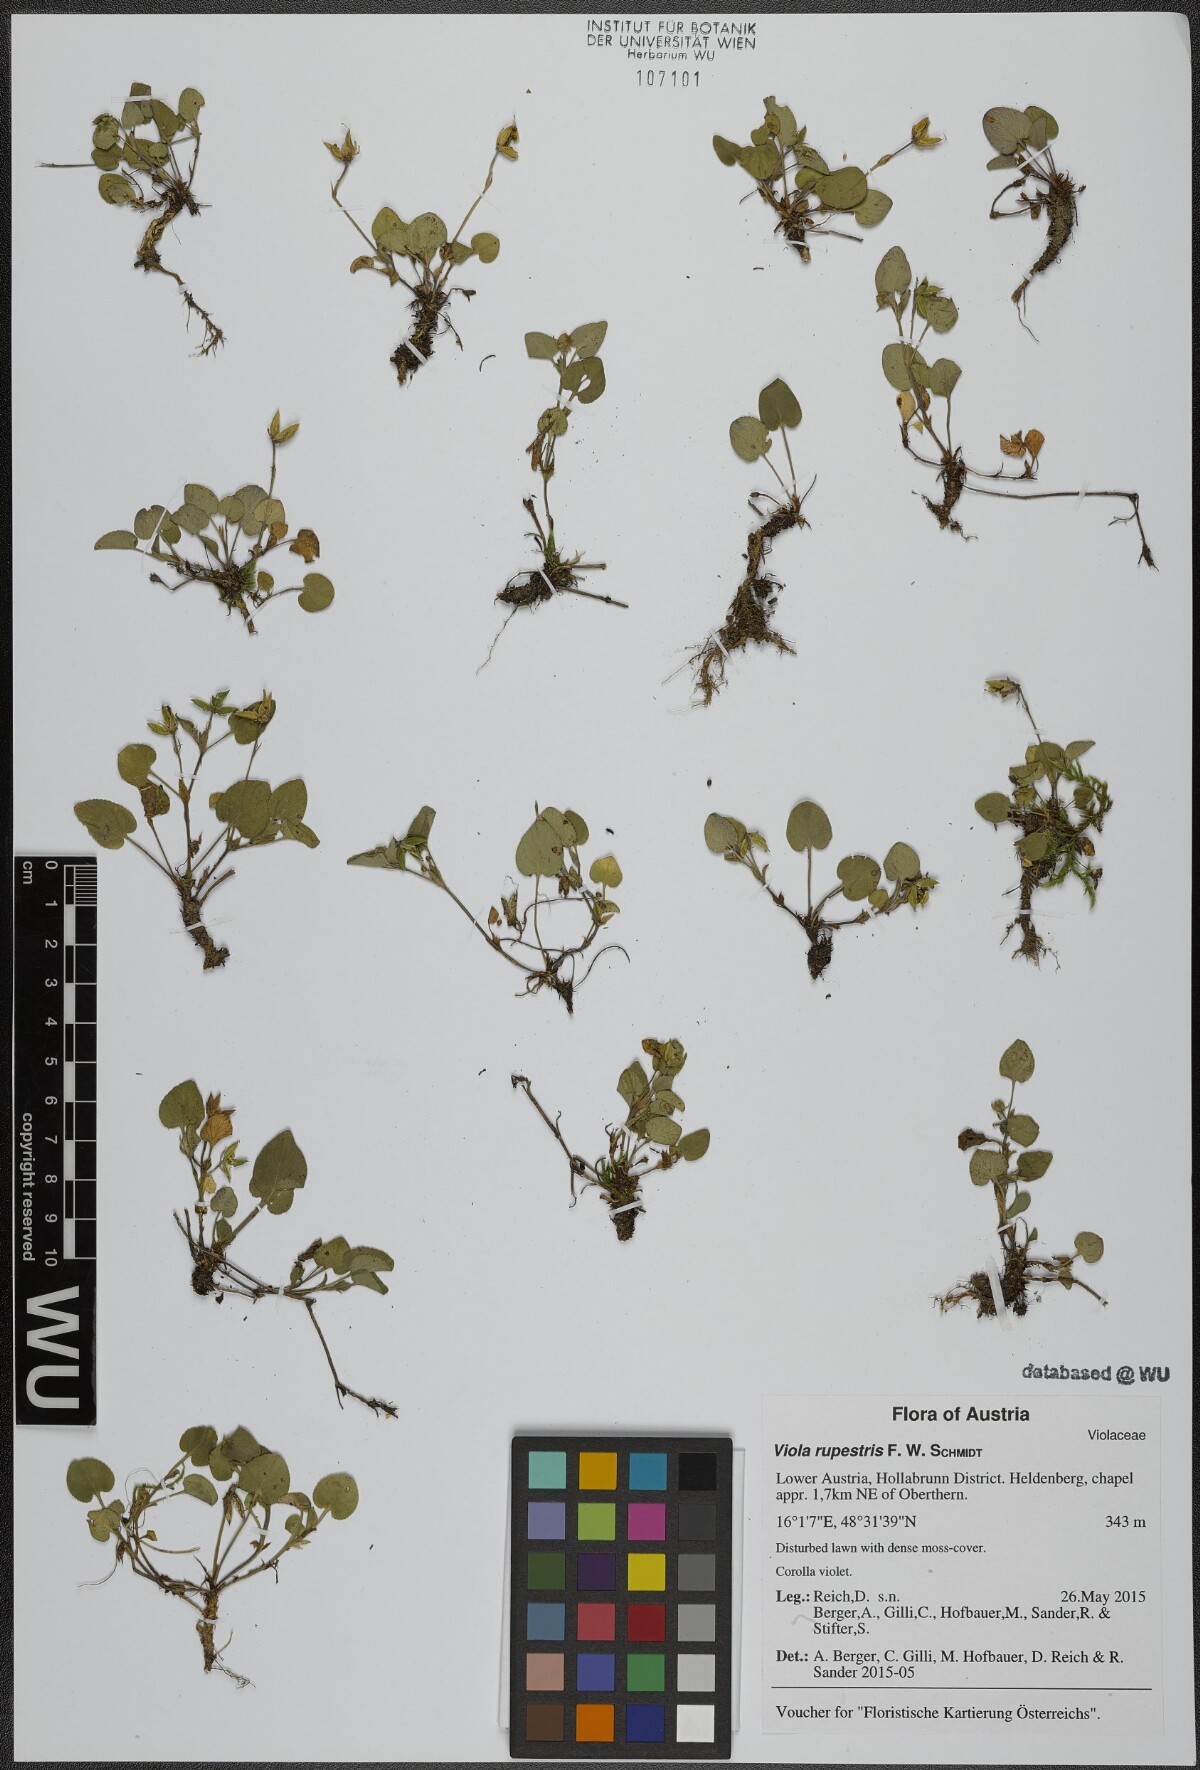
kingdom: Plantae
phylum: Tracheophyta
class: Magnoliopsida
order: Malpighiales
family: Violaceae
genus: Viola
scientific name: Viola rupestris
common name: Teesdale violet
